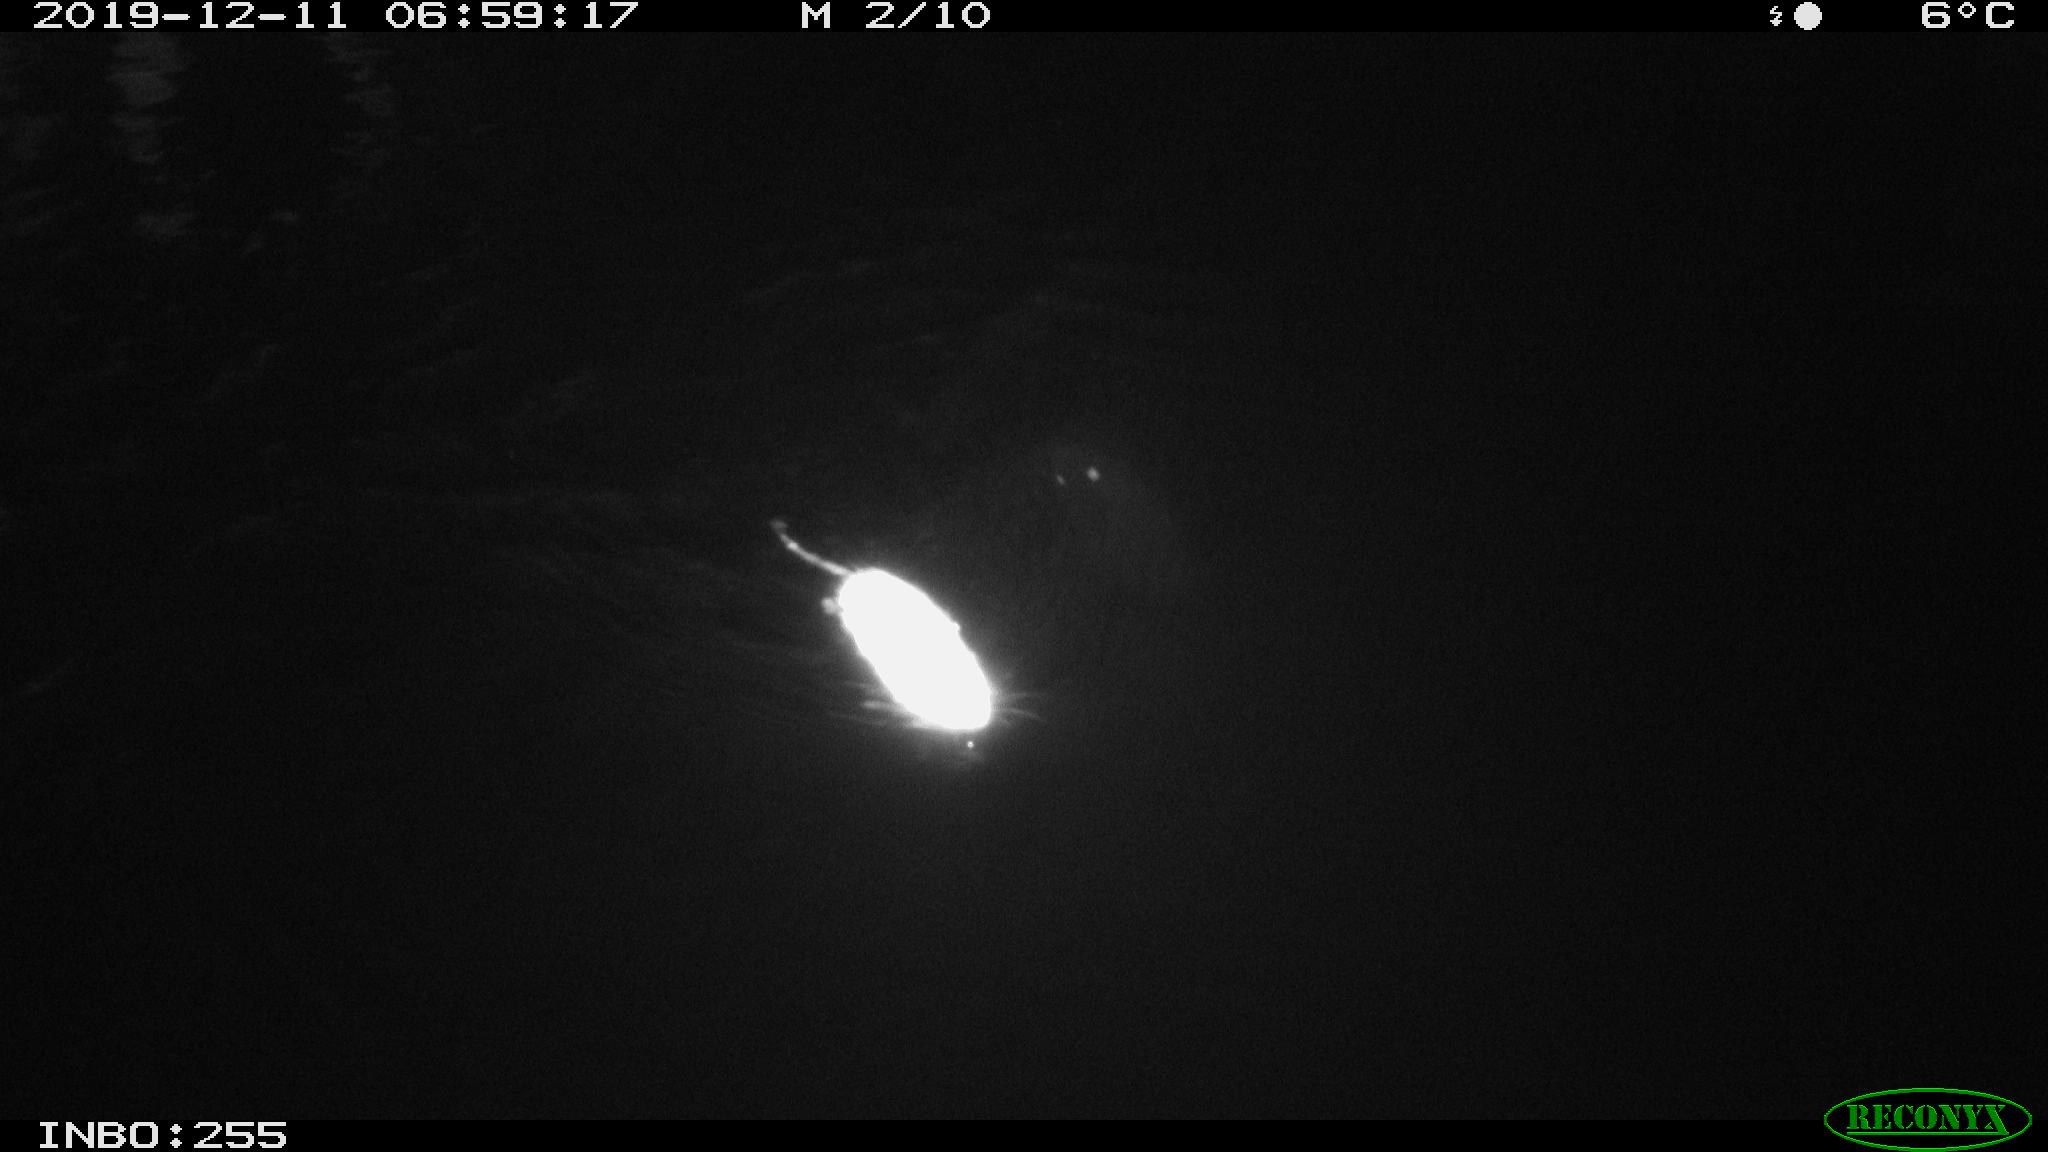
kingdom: Animalia
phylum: Chordata
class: Mammalia
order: Rodentia
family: Muridae
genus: Rattus
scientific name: Rattus norvegicus
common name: Brown rat
